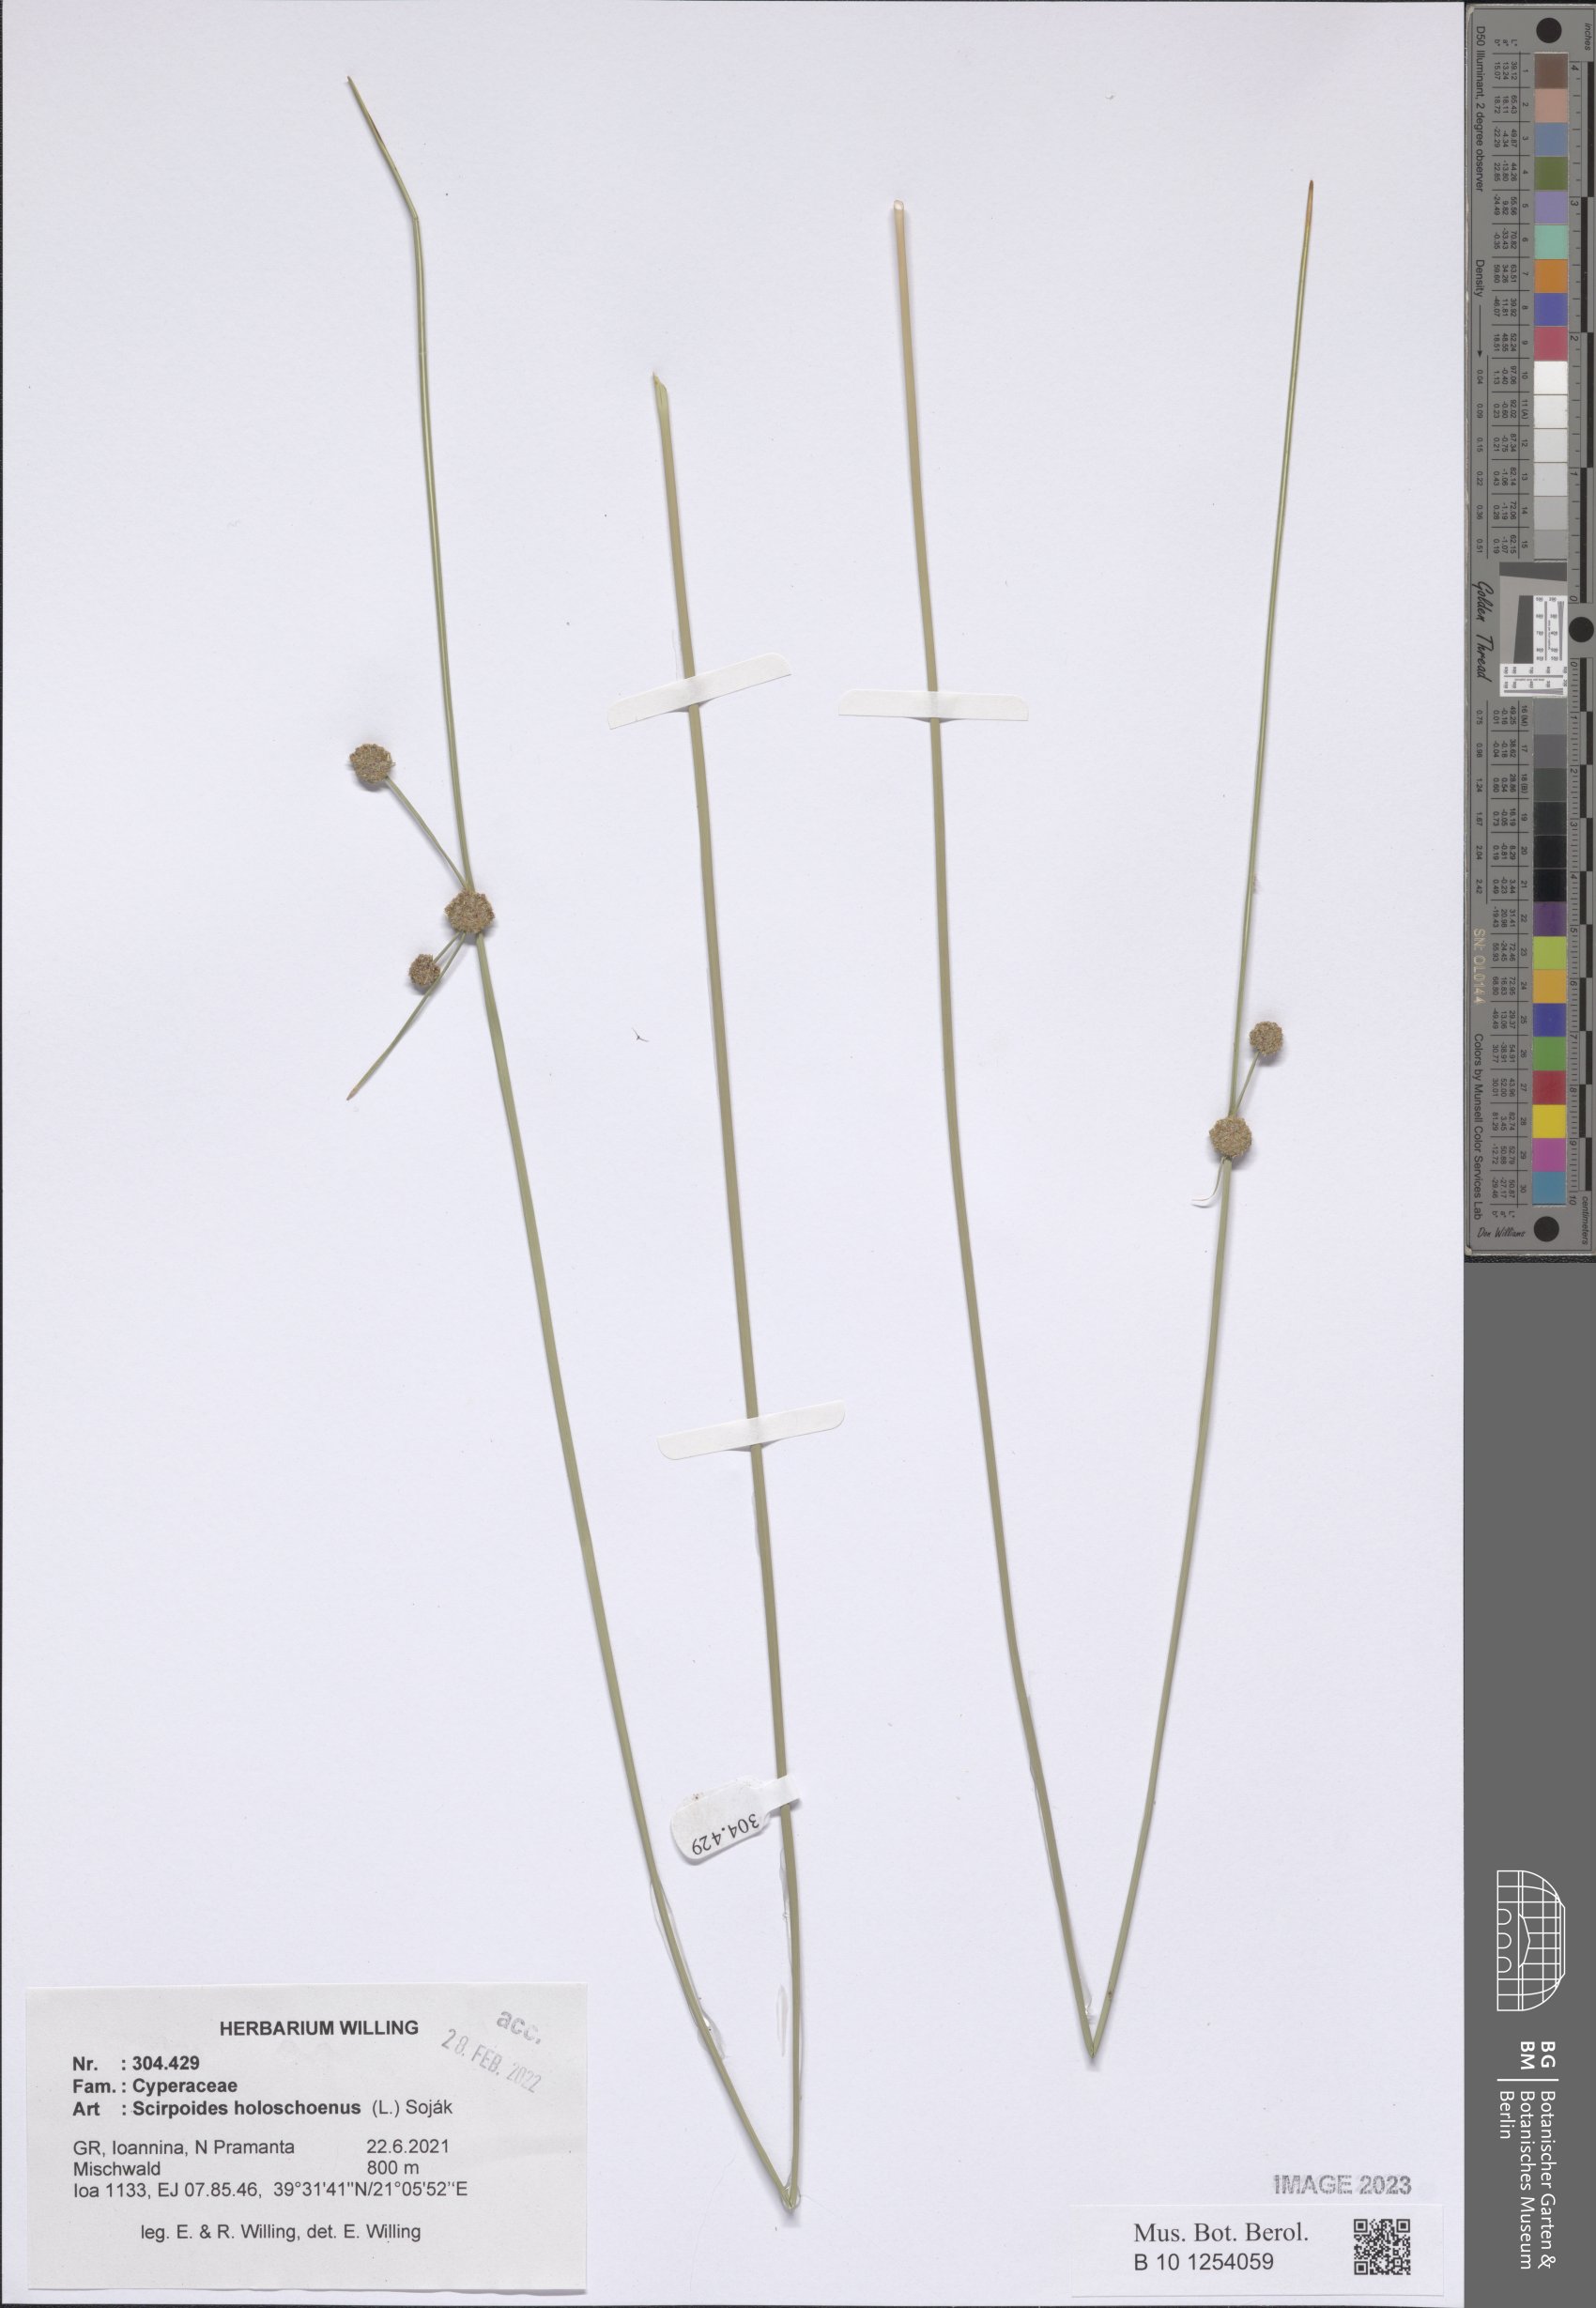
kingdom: Plantae
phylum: Tracheophyta
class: Liliopsida
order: Poales
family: Cyperaceae
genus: Scirpoides
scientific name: Scirpoides
